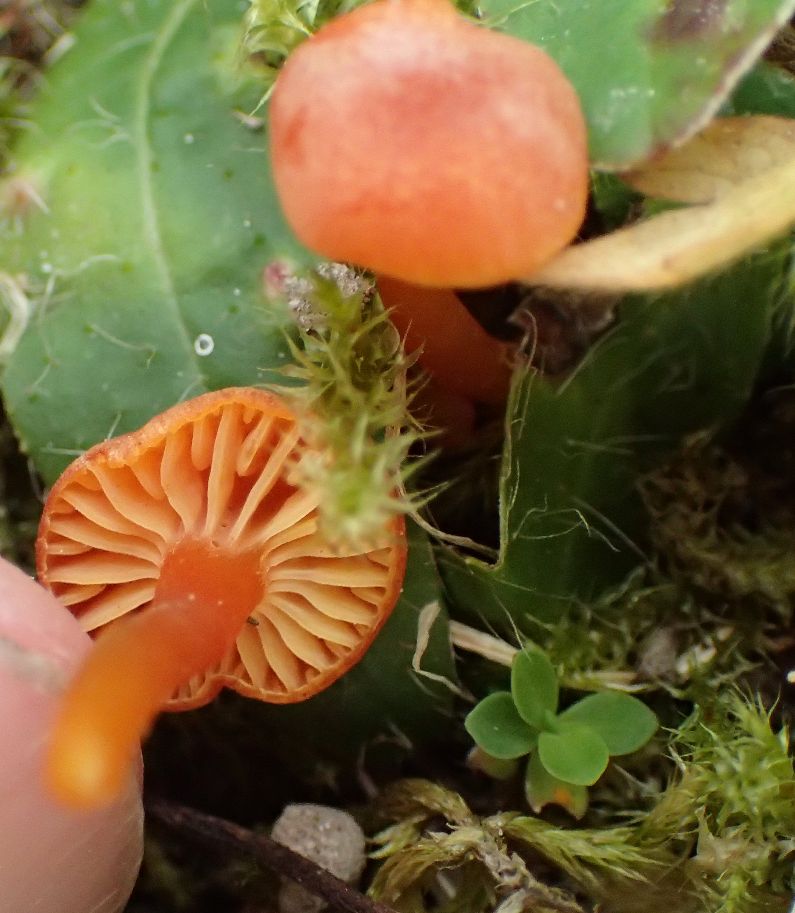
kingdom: Fungi
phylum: Basidiomycota
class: Agaricomycetes
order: Agaricales
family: Hygrophoraceae
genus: Hygrocybe
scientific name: Hygrocybe calciphila
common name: kalk-vokshat
